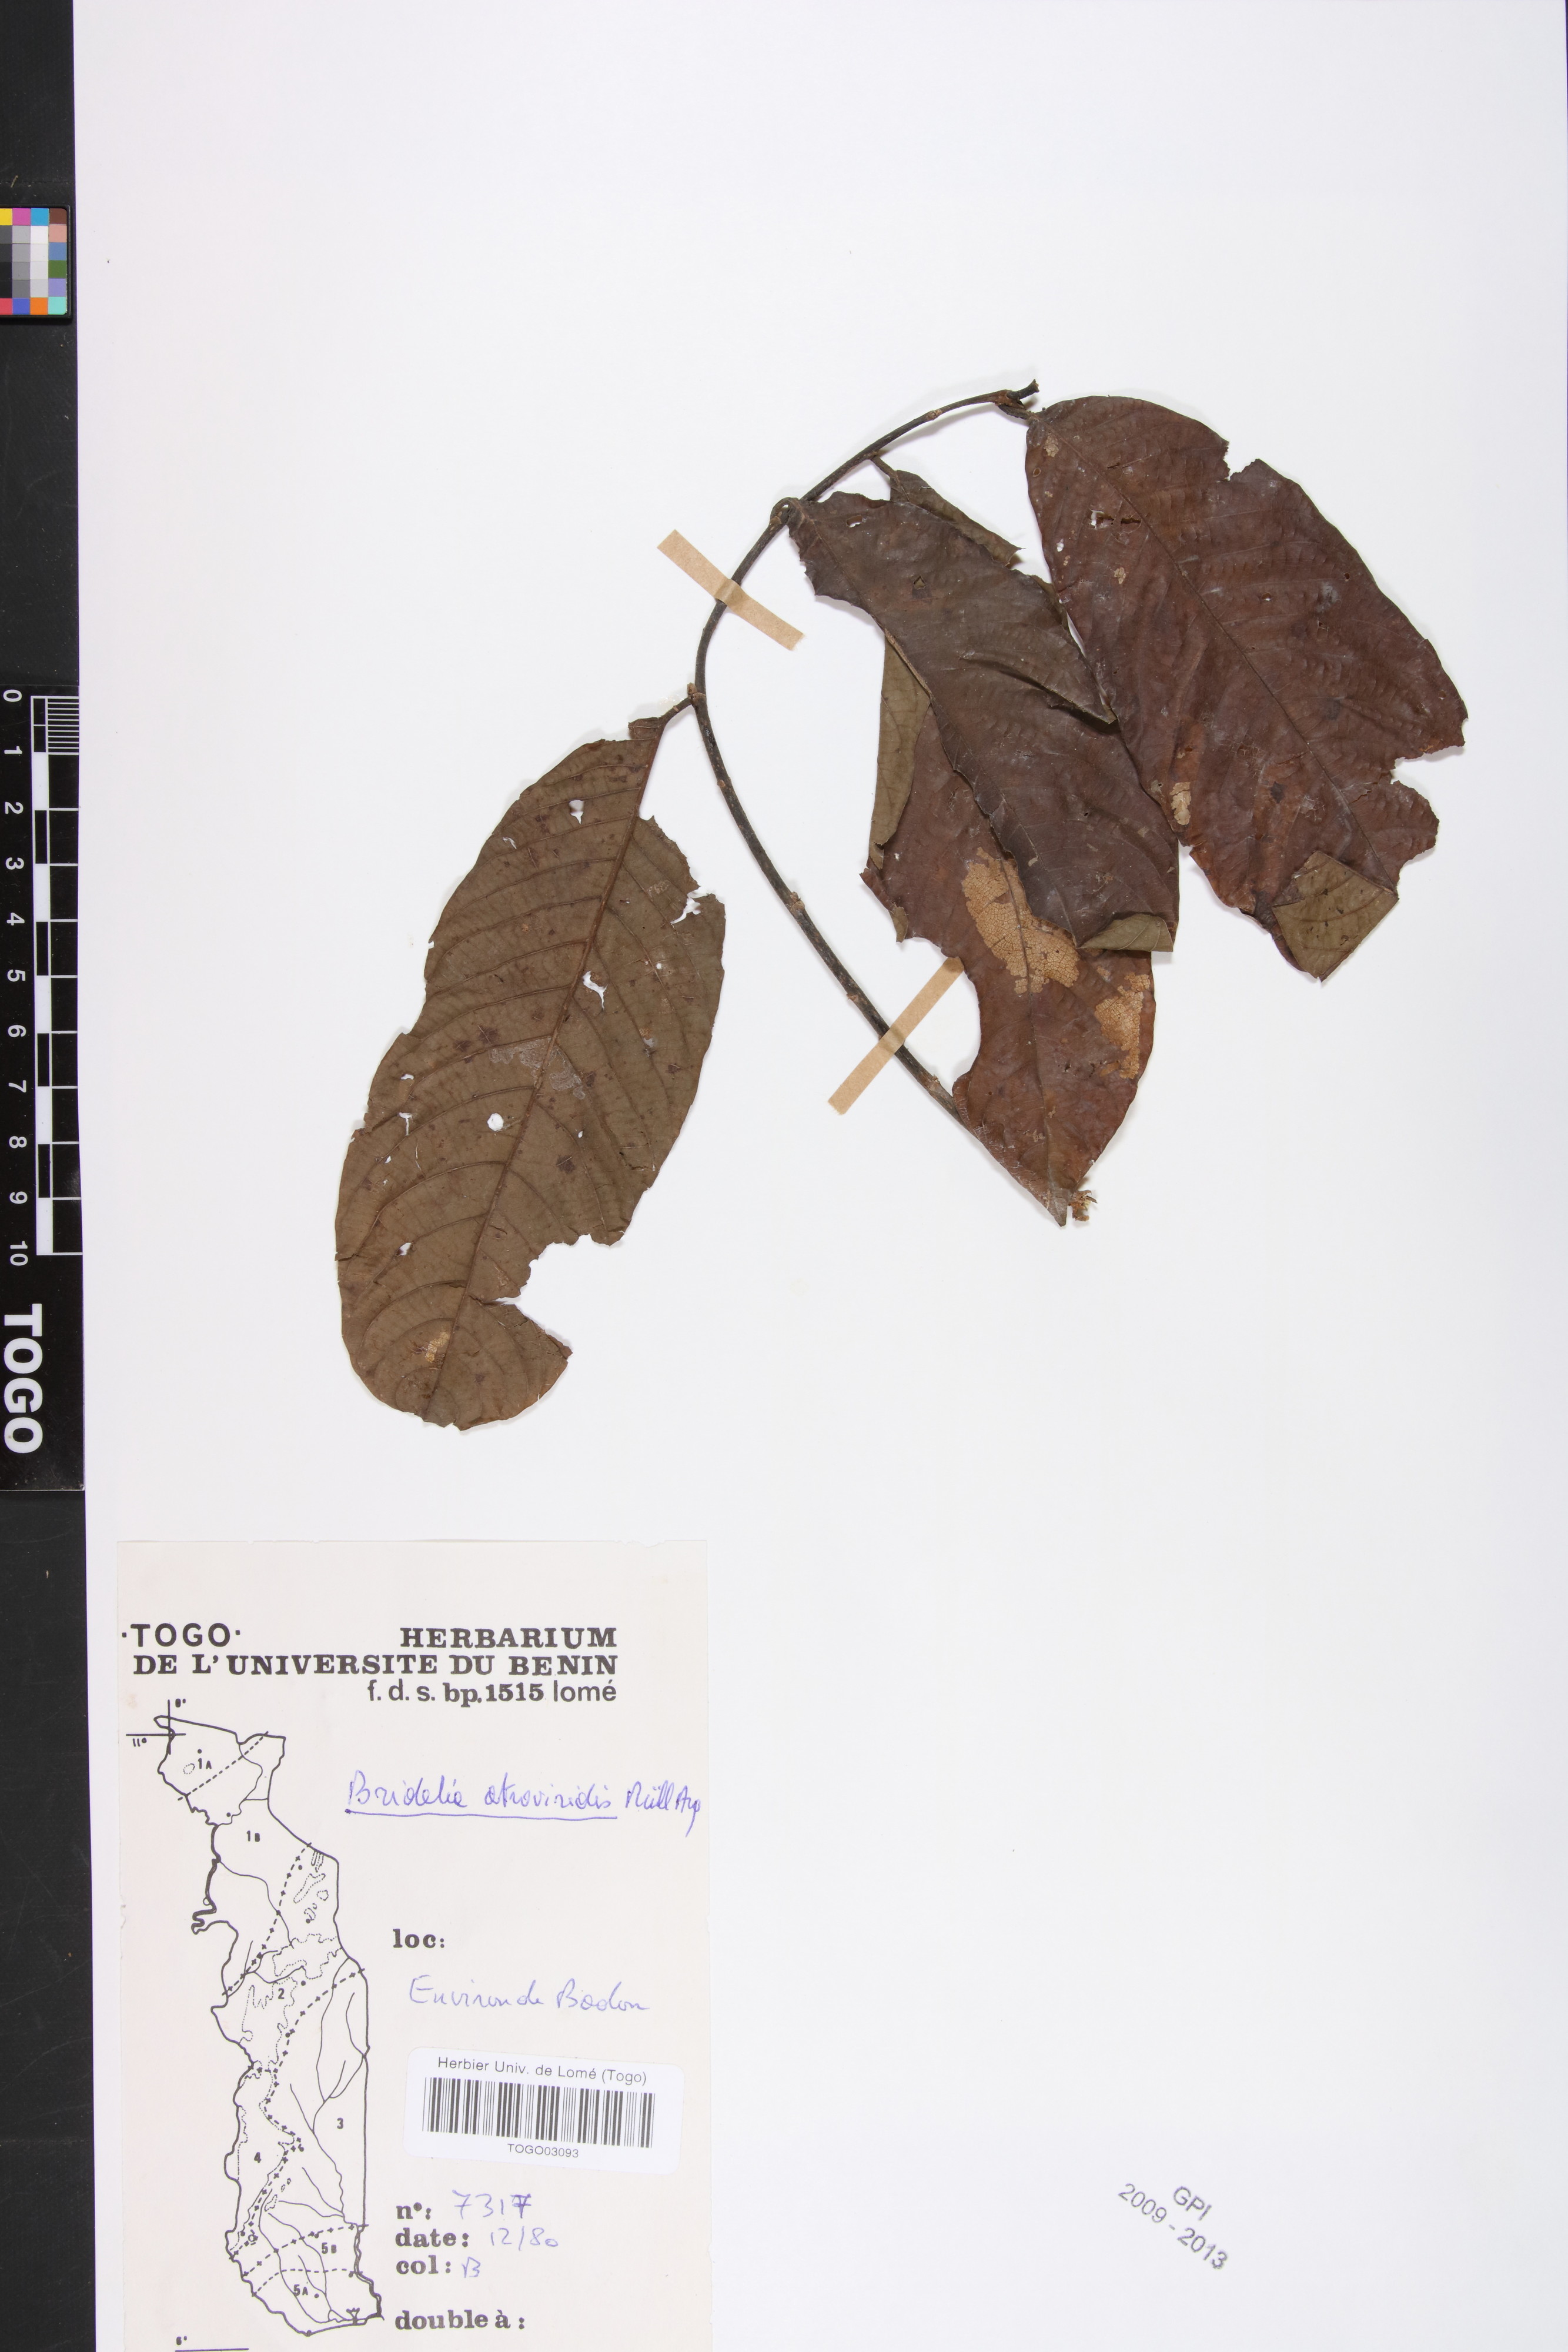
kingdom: Plantae
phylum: Tracheophyta
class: Magnoliopsida
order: Malpighiales
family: Phyllanthaceae
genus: Bridelia
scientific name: Bridelia atroviridis
